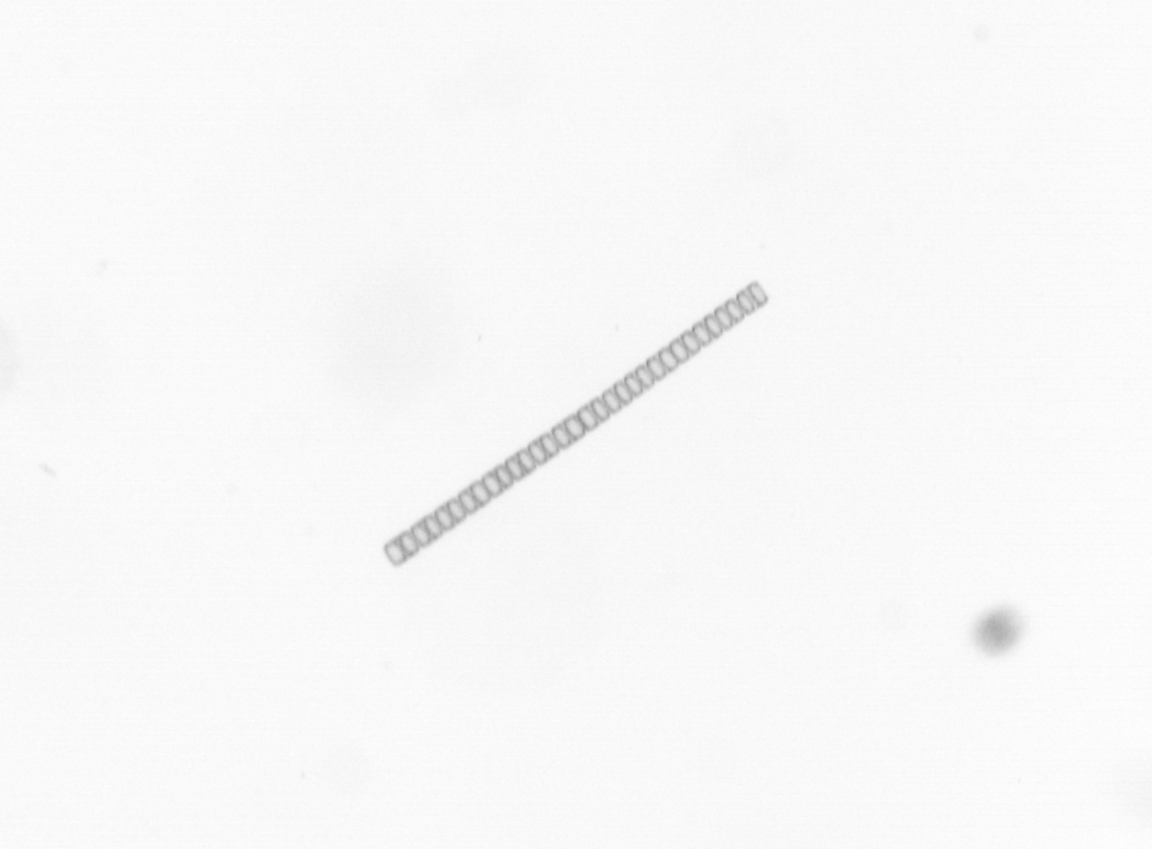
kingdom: Chromista
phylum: Ochrophyta
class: Bacillariophyceae
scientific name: Bacillariophyceae
